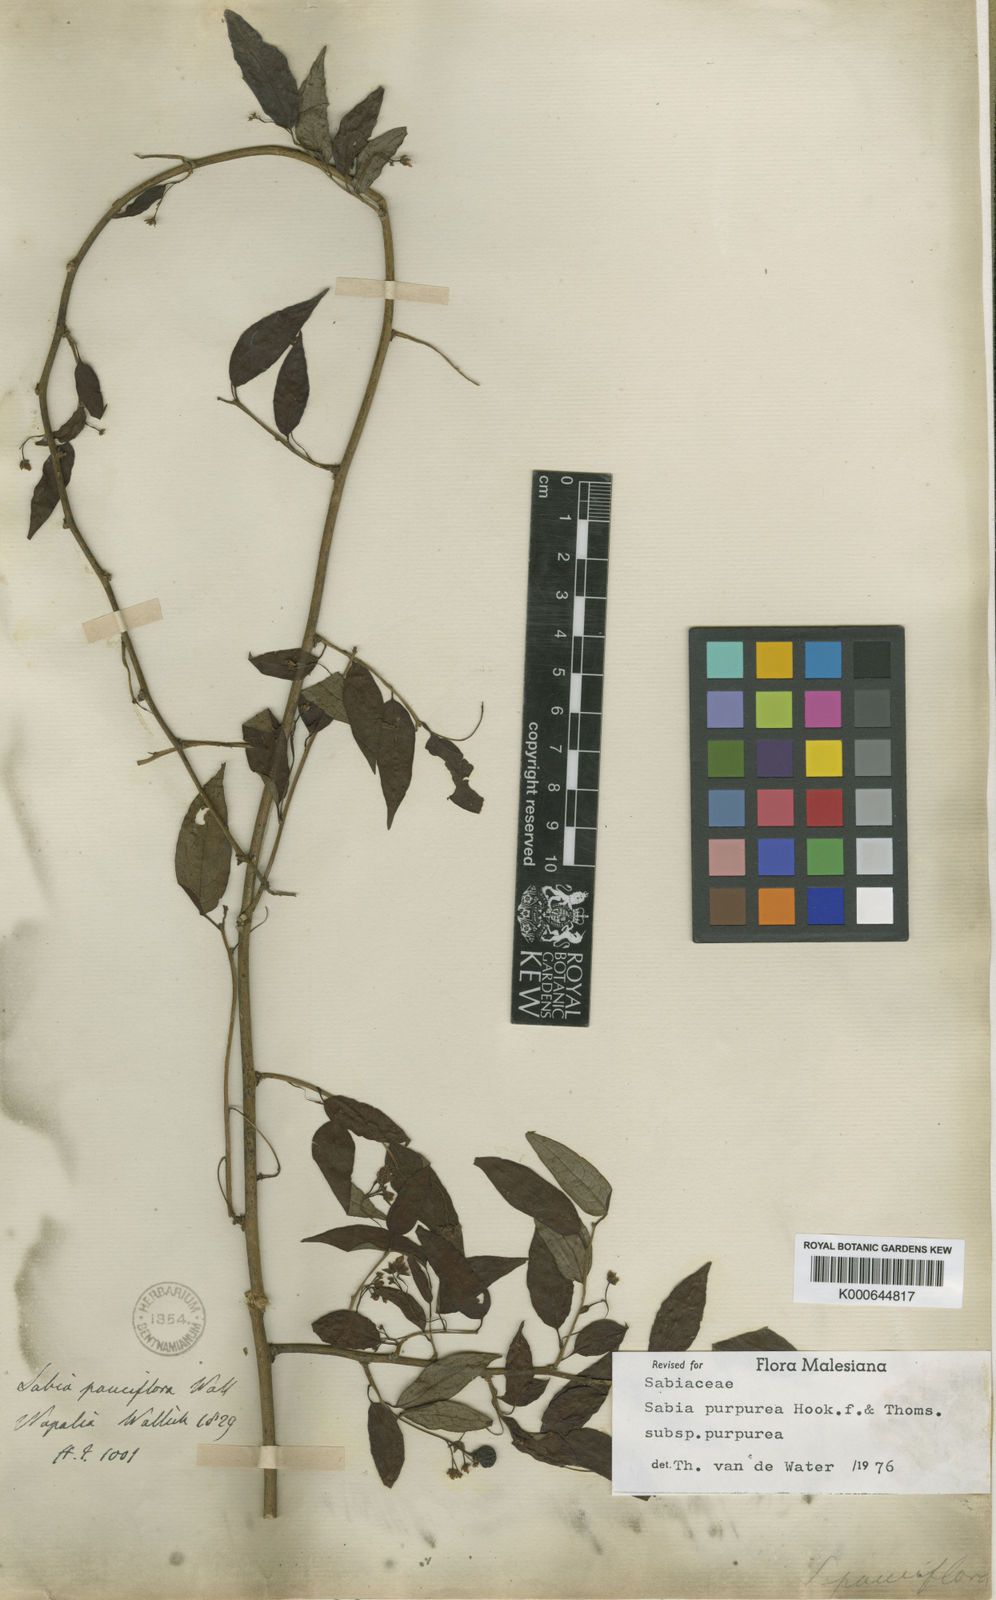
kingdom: Plantae
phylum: Tracheophyta
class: Magnoliopsida
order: Proteales
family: Sabiaceae
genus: Sabia
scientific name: Sabia purpurea
